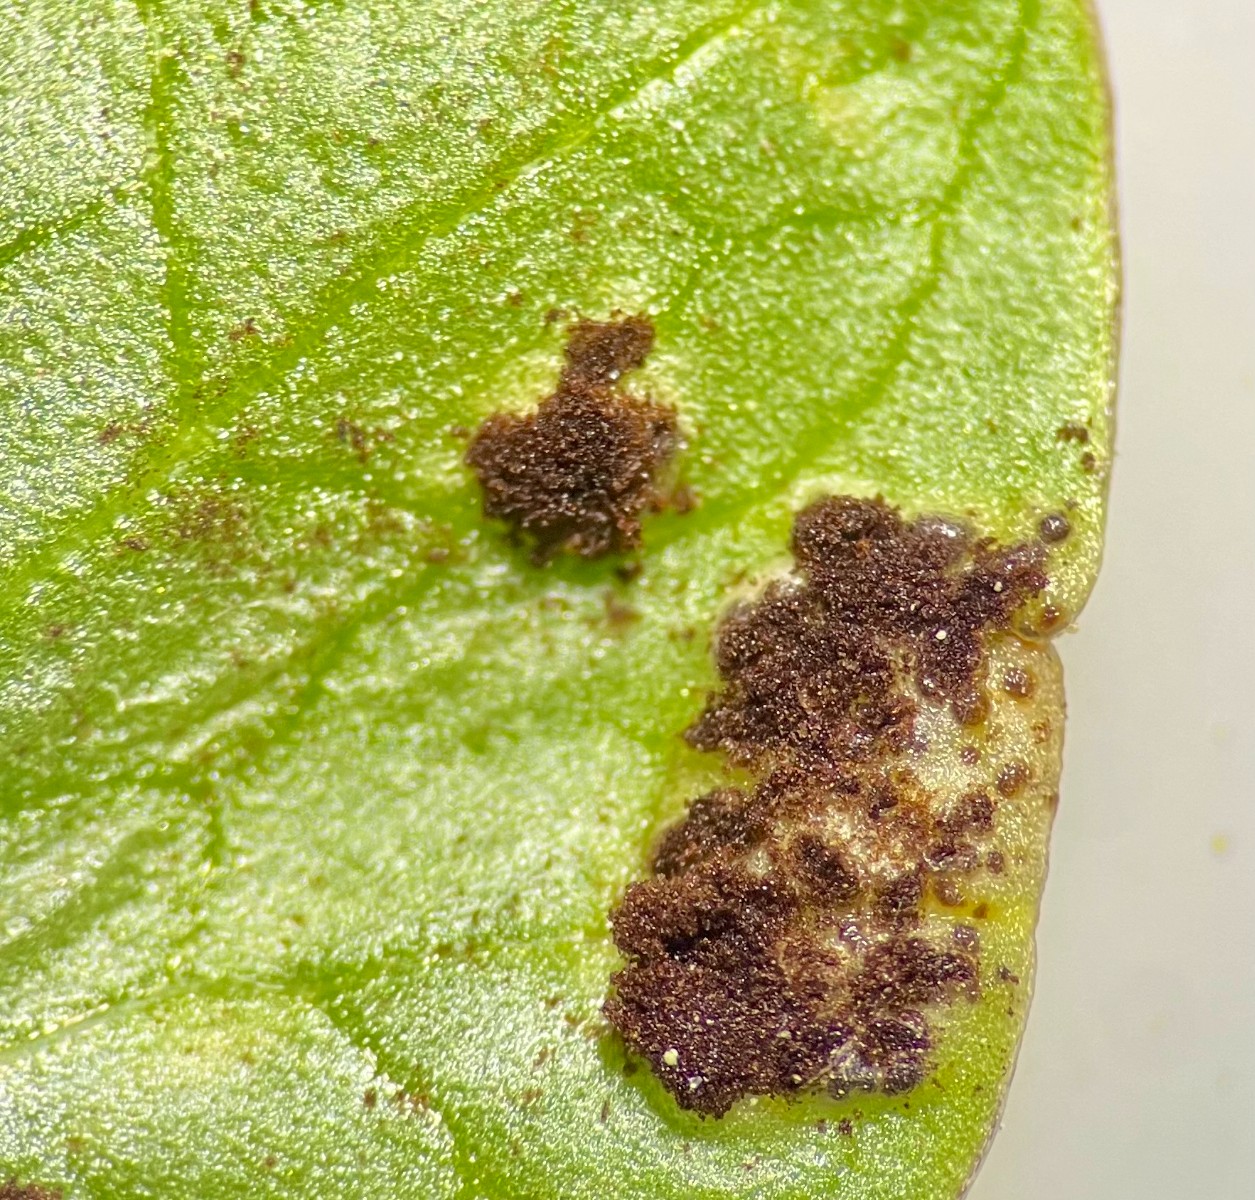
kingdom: Fungi
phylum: Basidiomycota
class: Pucciniomycetes
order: Pucciniales
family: Pucciniaceae
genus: Uromyces
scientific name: Uromyces ficariae
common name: vorterod-encellerust
